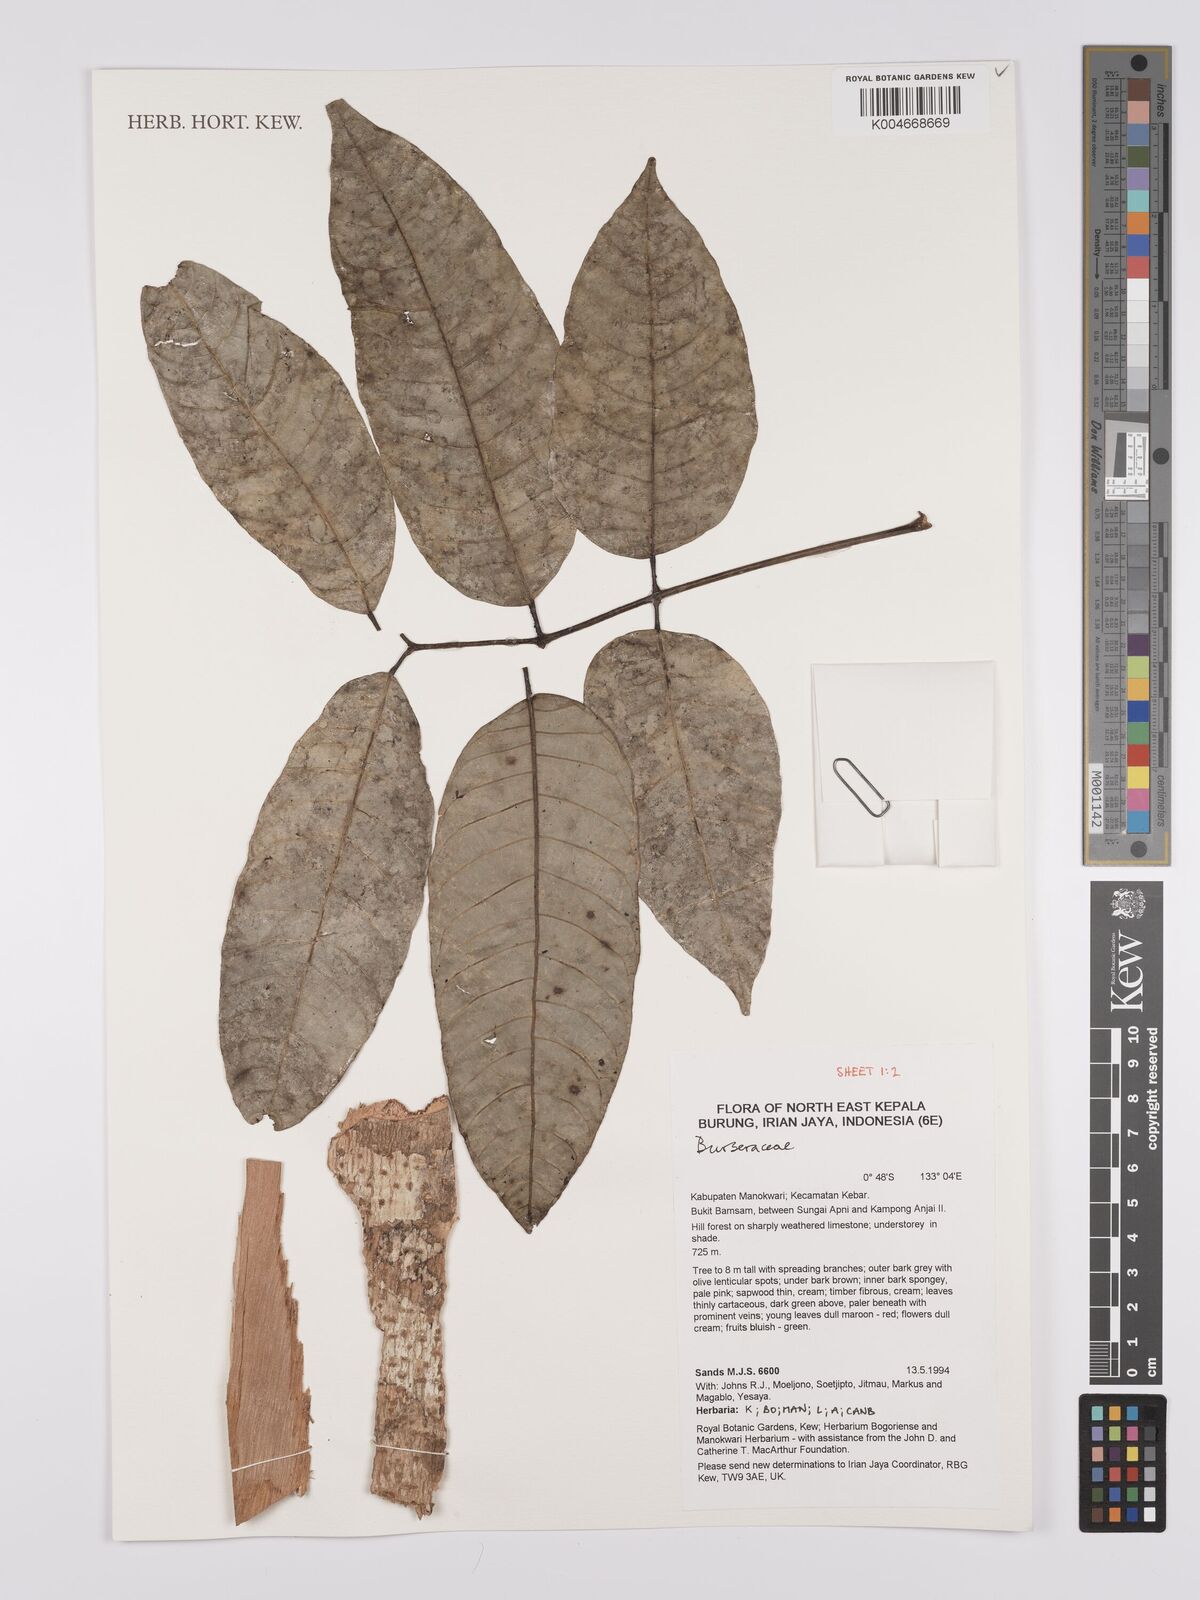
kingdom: Plantae
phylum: Tracheophyta
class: Magnoliopsida
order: Sapindales
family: Burseraceae
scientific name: Burseraceae
